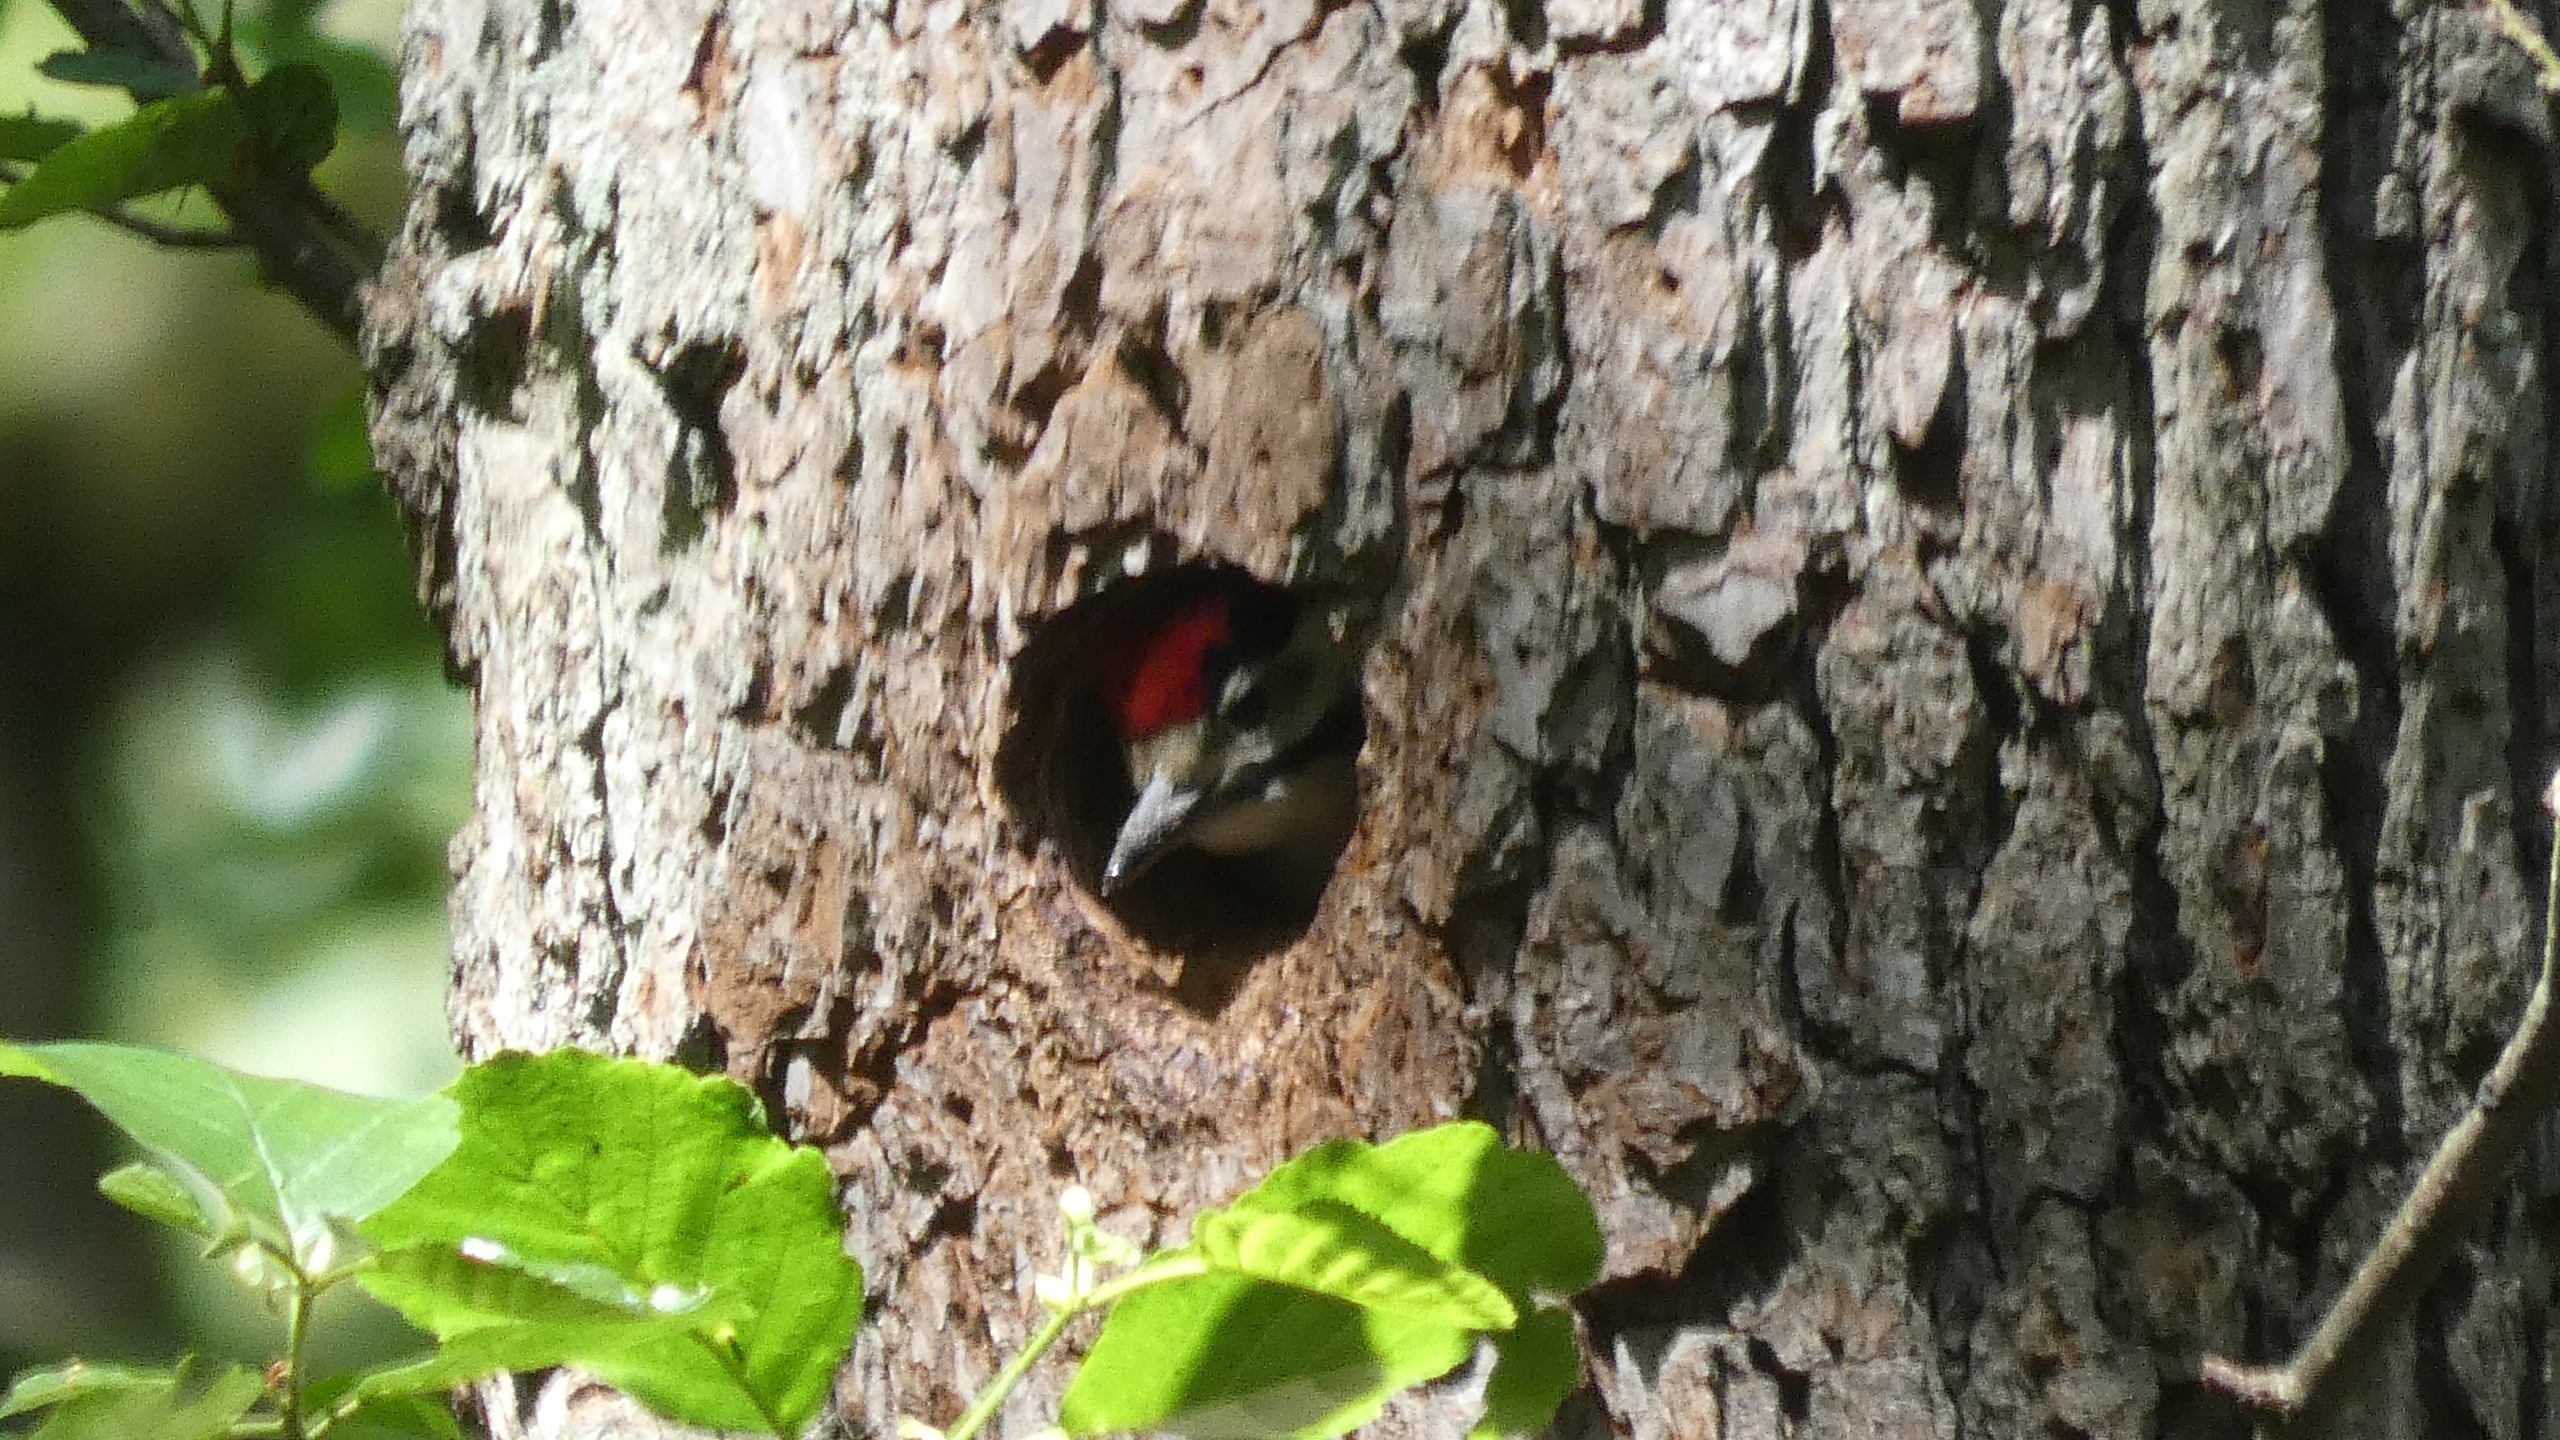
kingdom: Animalia
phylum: Chordata
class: Aves
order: Piciformes
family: Picidae
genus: Dendrocopos
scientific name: Dendrocopos major
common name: Stor flagspætte
